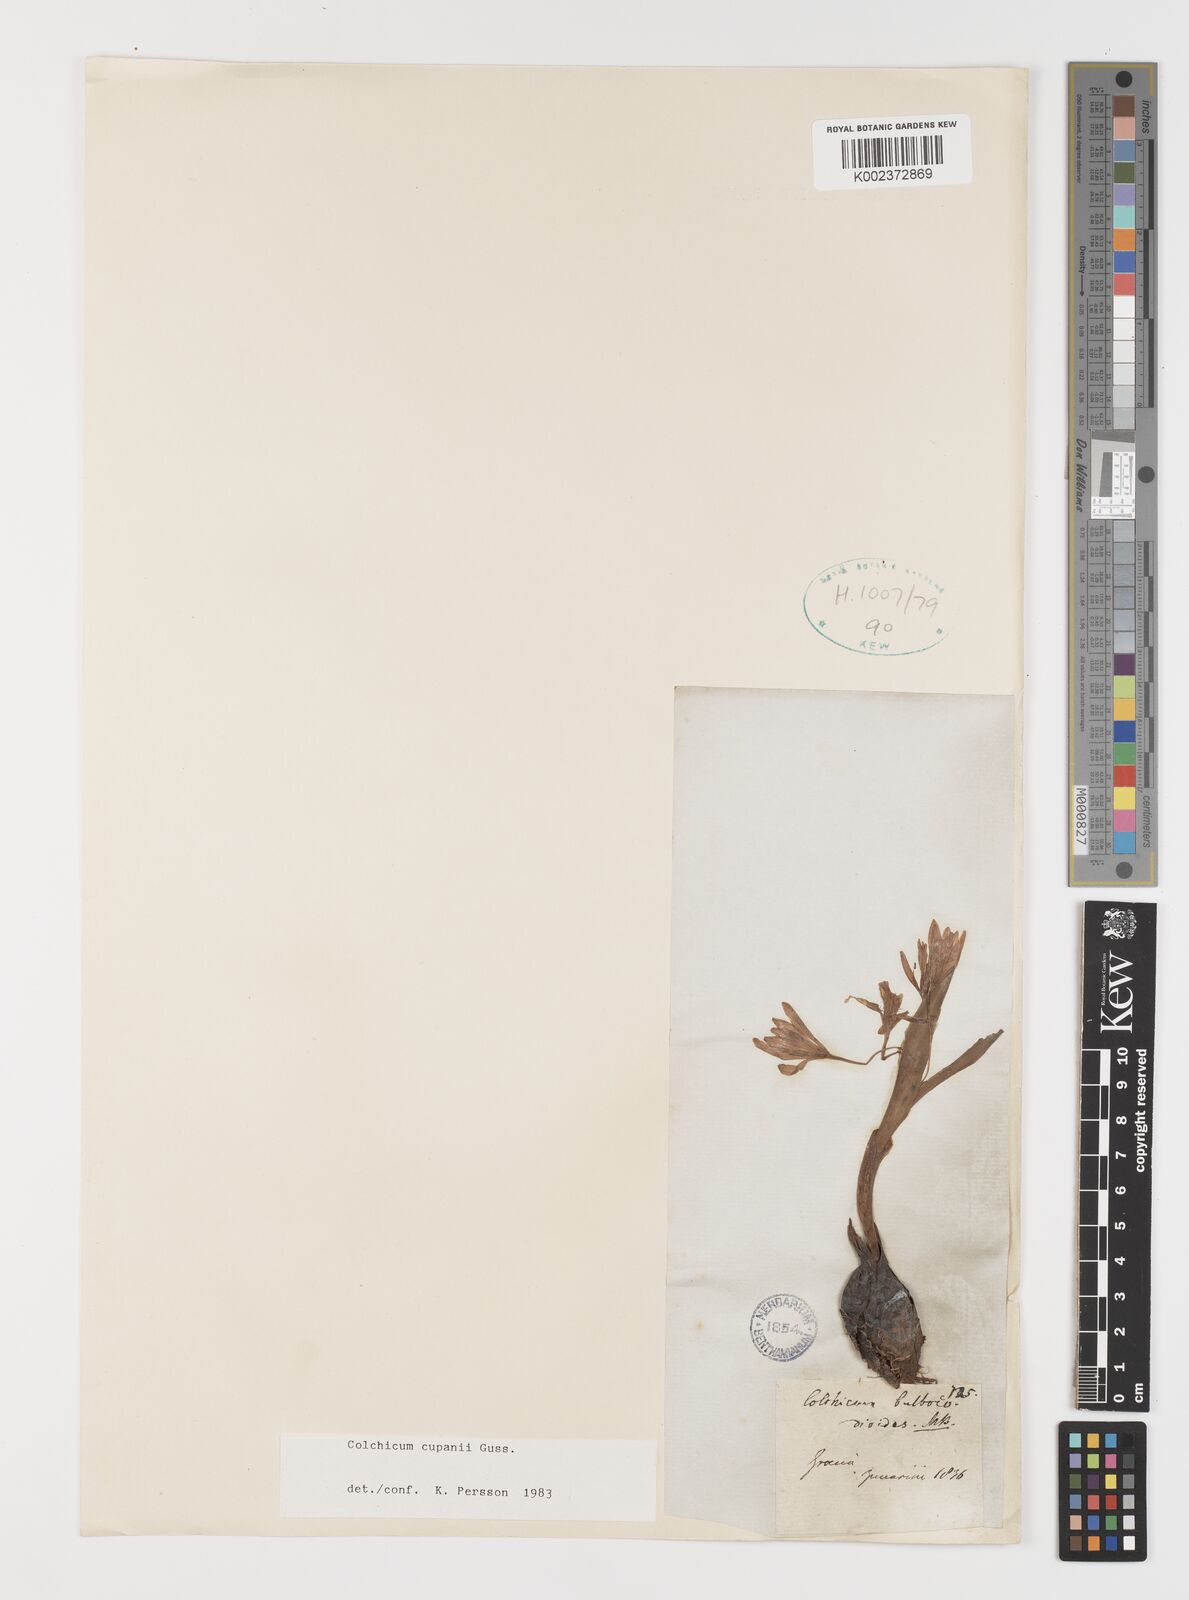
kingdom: Plantae
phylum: Tracheophyta
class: Liliopsida
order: Liliales
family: Colchicaceae
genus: Colchicum
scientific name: Colchicum cupanii
